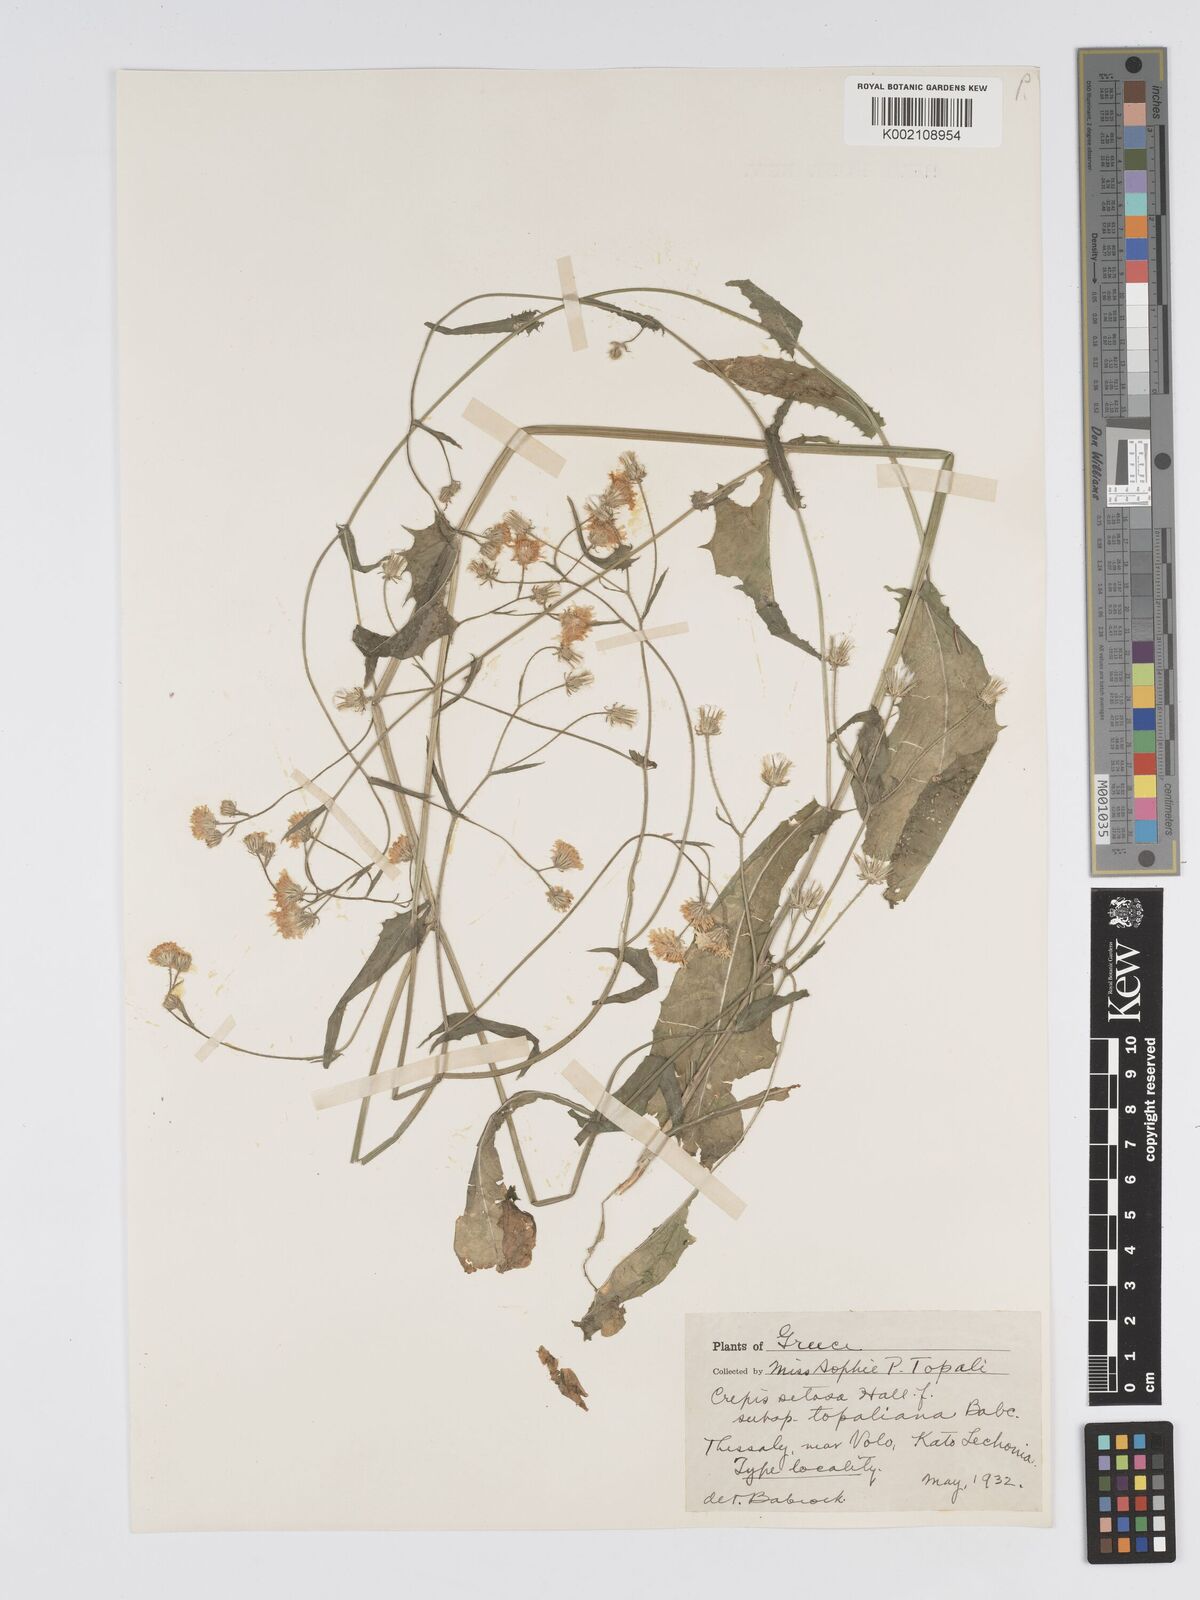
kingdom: Plantae
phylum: Tracheophyta
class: Magnoliopsida
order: Asterales
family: Asteraceae
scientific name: Asteraceae
